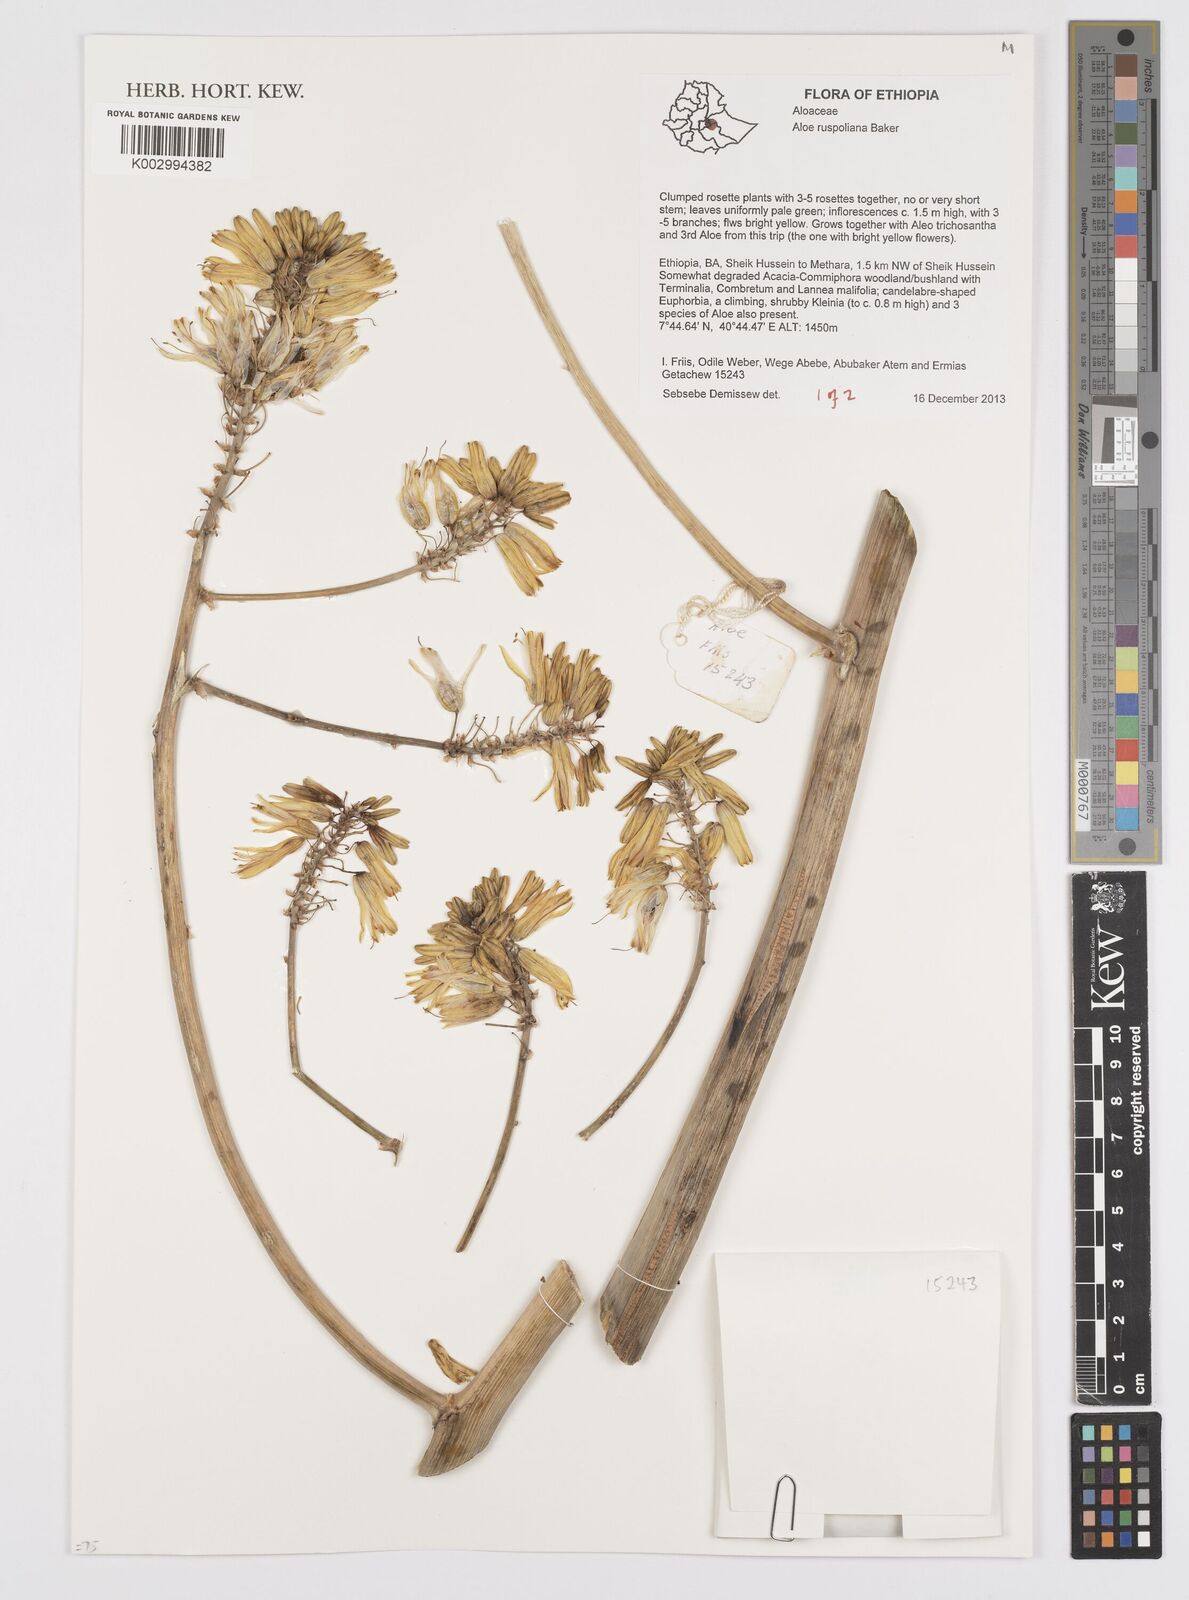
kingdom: Plantae
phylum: Tracheophyta
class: Liliopsida
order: Asparagales
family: Asphodelaceae
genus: Aloe
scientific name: Aloe ruspoliana
